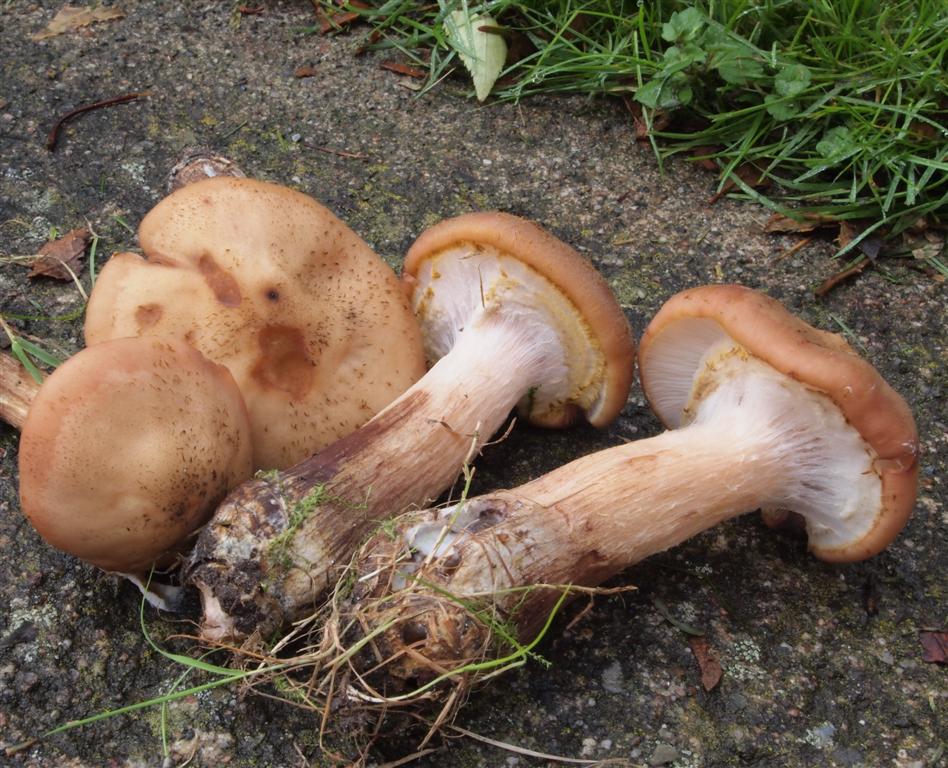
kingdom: Fungi
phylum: Basidiomycota
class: Agaricomycetes
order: Agaricales
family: Physalacriaceae
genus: Armillaria
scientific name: Armillaria lutea
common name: køllestokket honningsvamp
